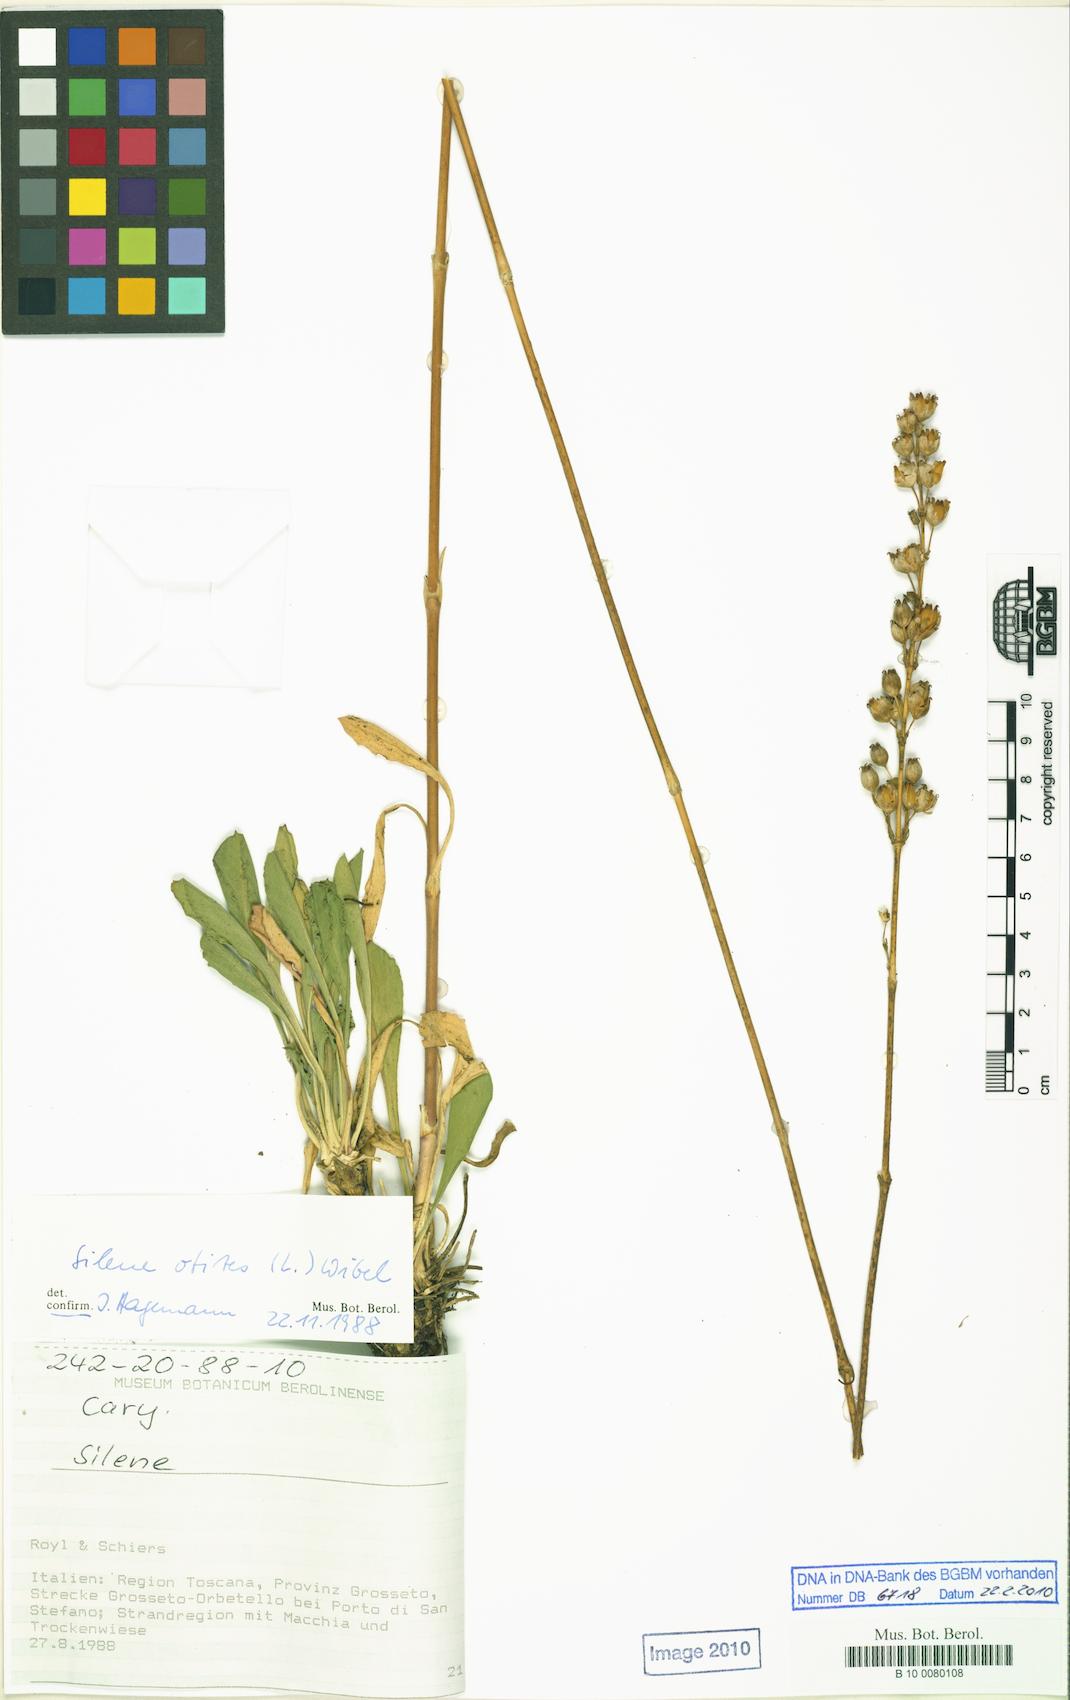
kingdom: Plantae
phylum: Tracheophyta
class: Magnoliopsida
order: Caryophyllales
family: Caryophyllaceae
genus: Silene
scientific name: Silene otites
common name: Spanish catchfly
